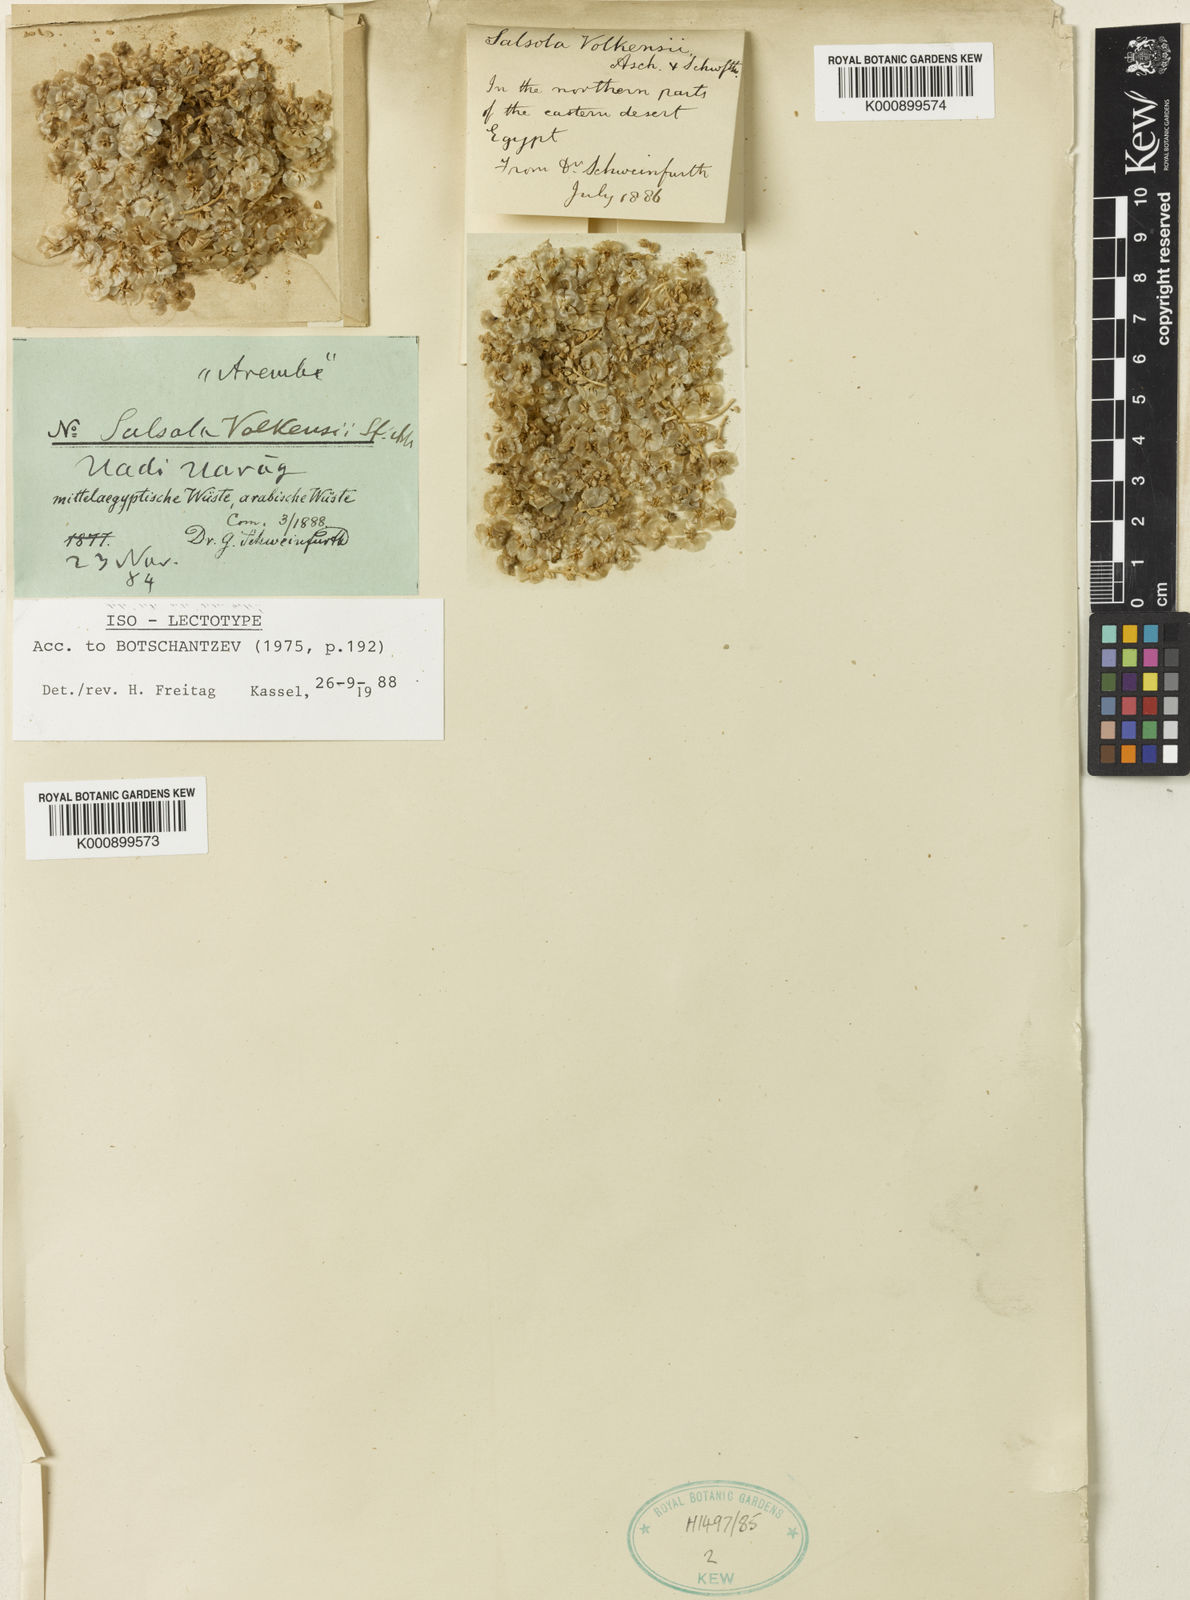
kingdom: Plantae
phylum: Tracheophyta
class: Magnoliopsida
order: Caryophyllales
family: Amaranthaceae
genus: Nitrosalsola
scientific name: Nitrosalsola volkensii
